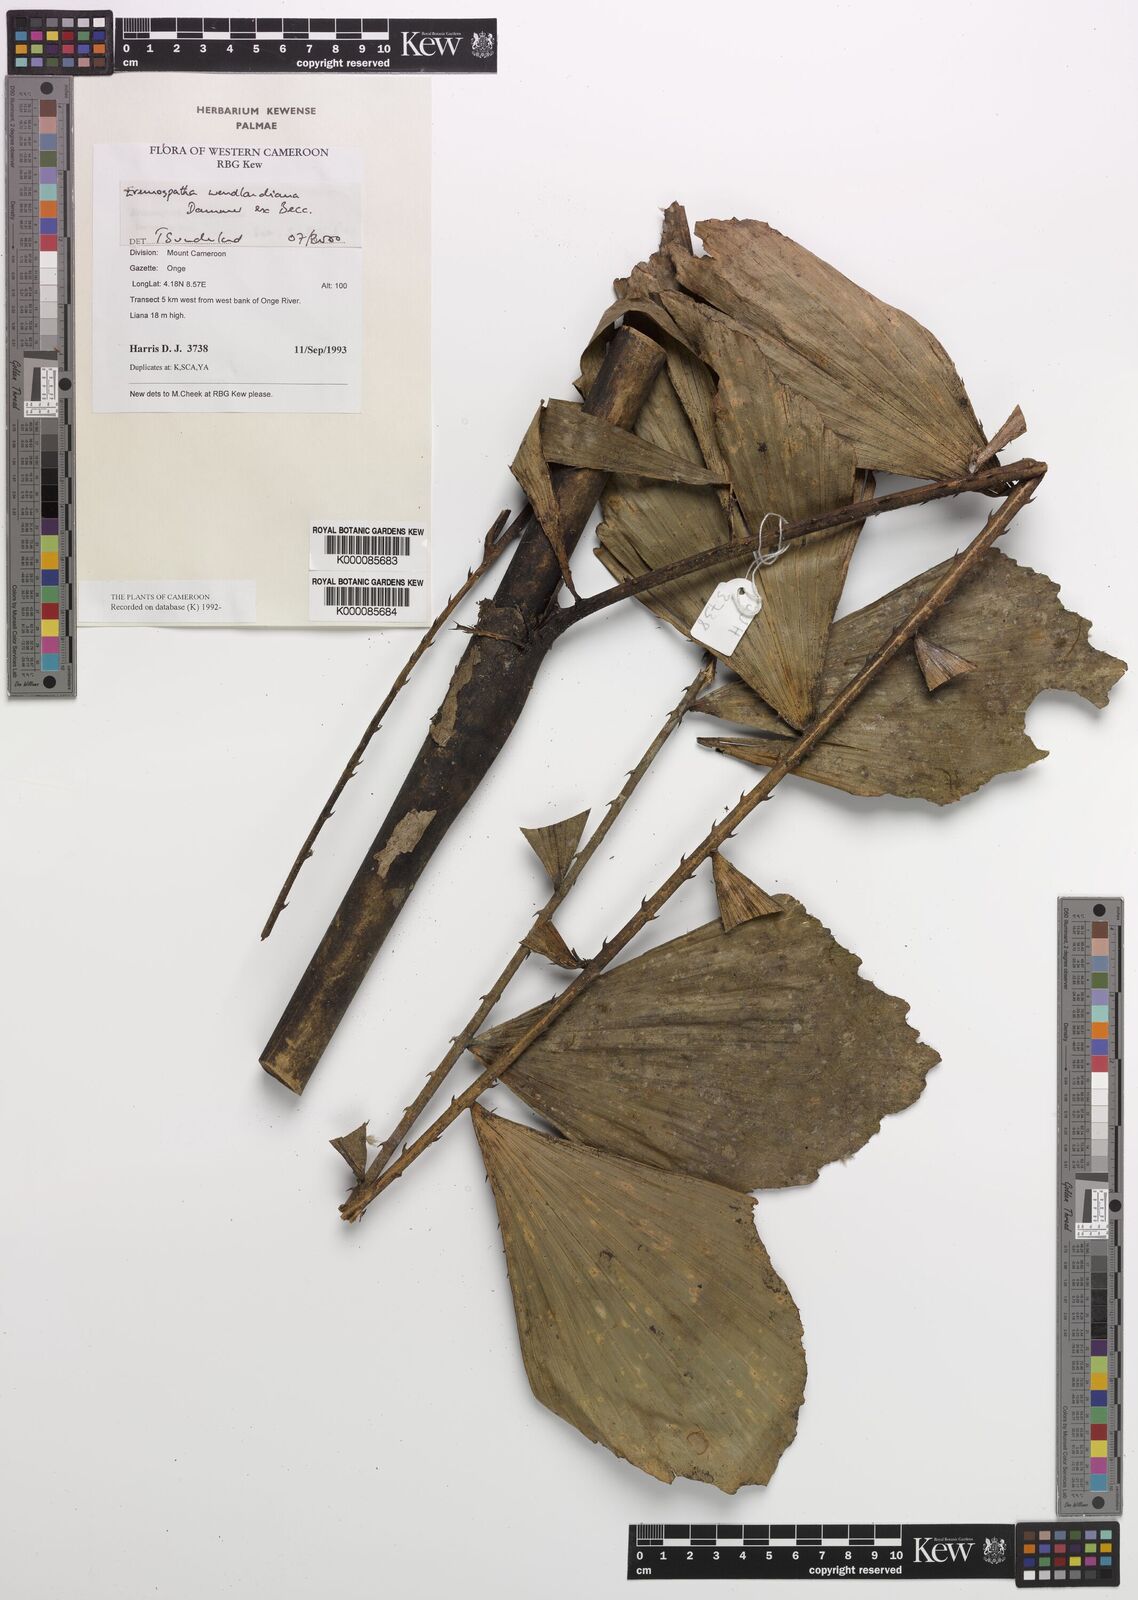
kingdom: Plantae
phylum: Tracheophyta
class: Liliopsida
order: Arecales
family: Arecaceae
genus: Eremospatha
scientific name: Eremospatha wendlandiana
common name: Rattan
